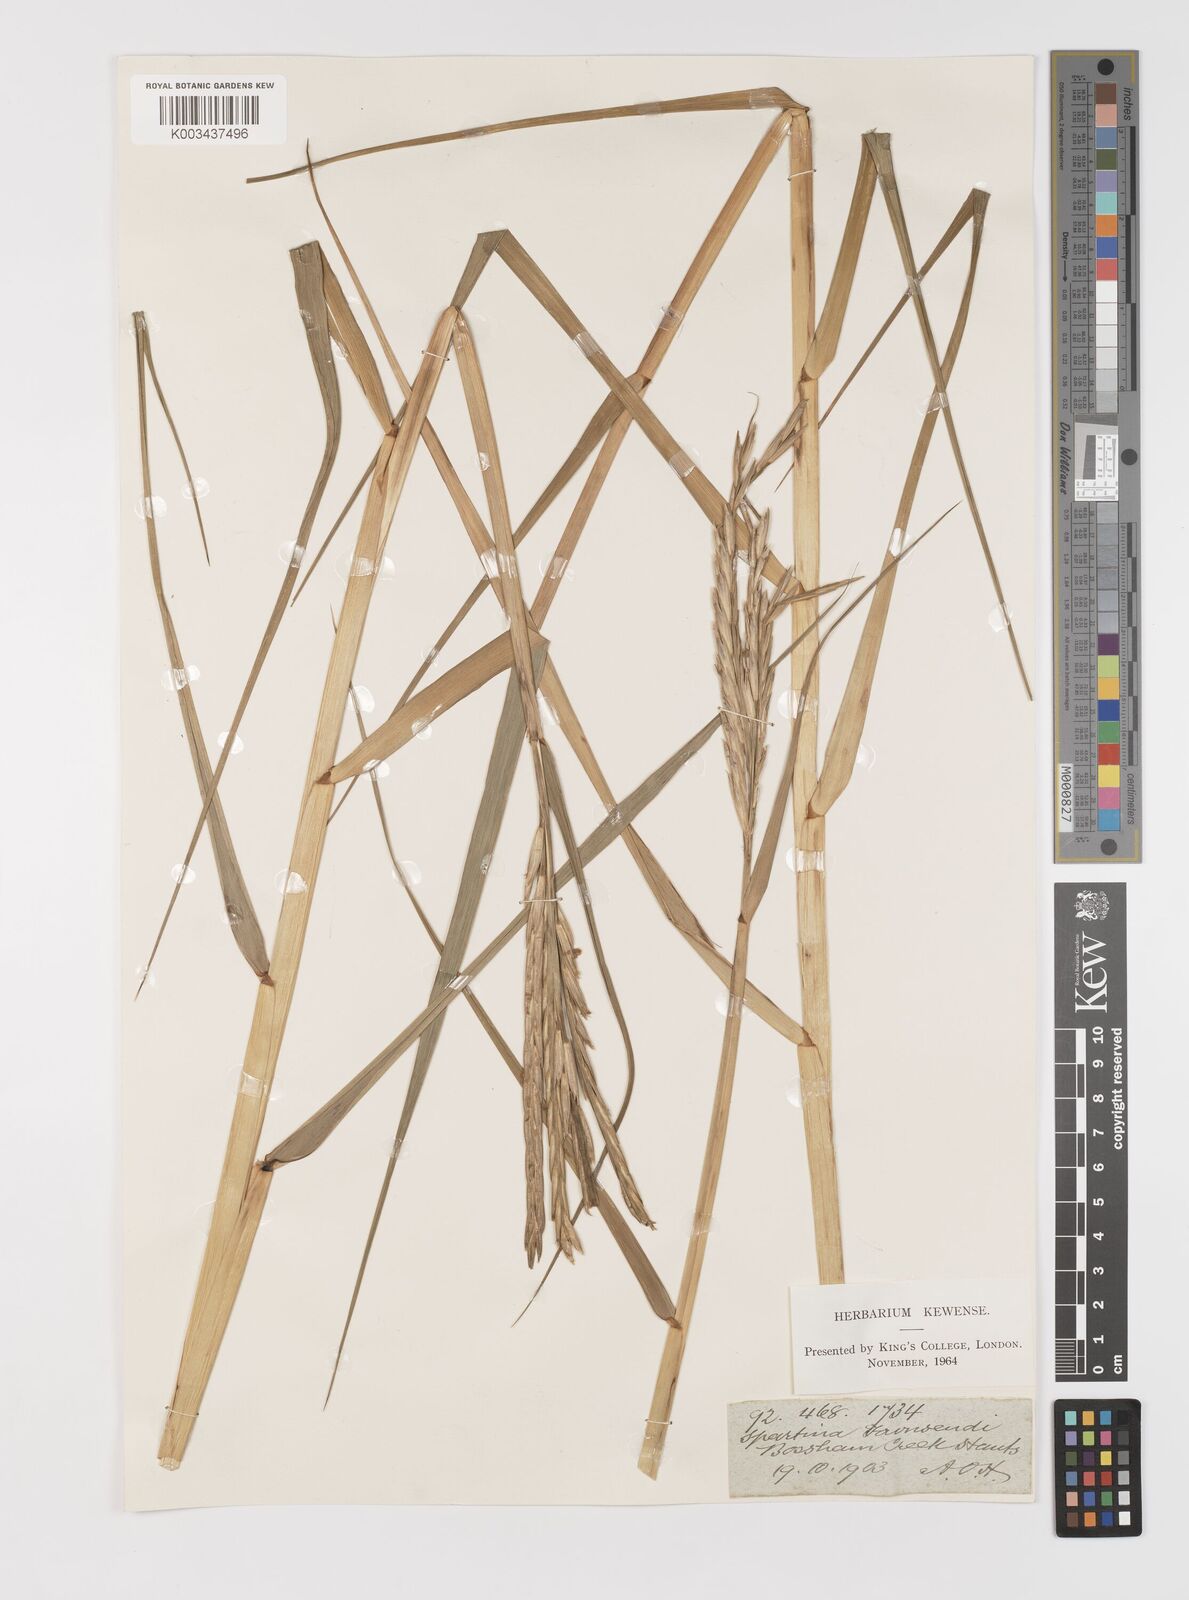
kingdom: Plantae
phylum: Tracheophyta
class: Liliopsida
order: Poales
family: Poaceae
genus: Sporobolus
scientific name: Sporobolus anglicus
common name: English cordgrass
